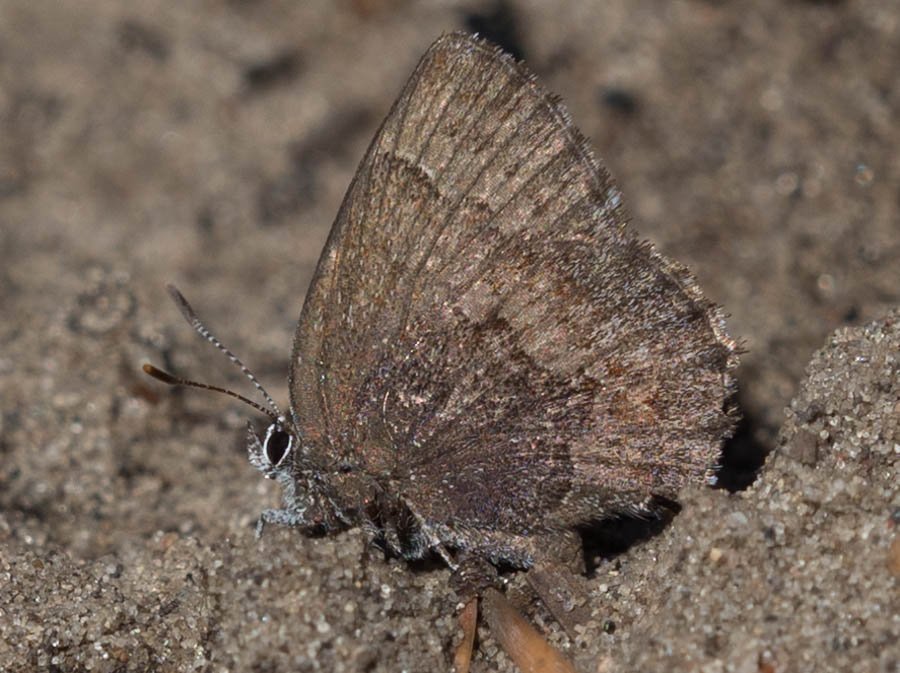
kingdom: Animalia
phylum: Arthropoda
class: Insecta
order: Lepidoptera
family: Lycaenidae
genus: Incisalia
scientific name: Incisalia irioides
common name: Brown Elfin
